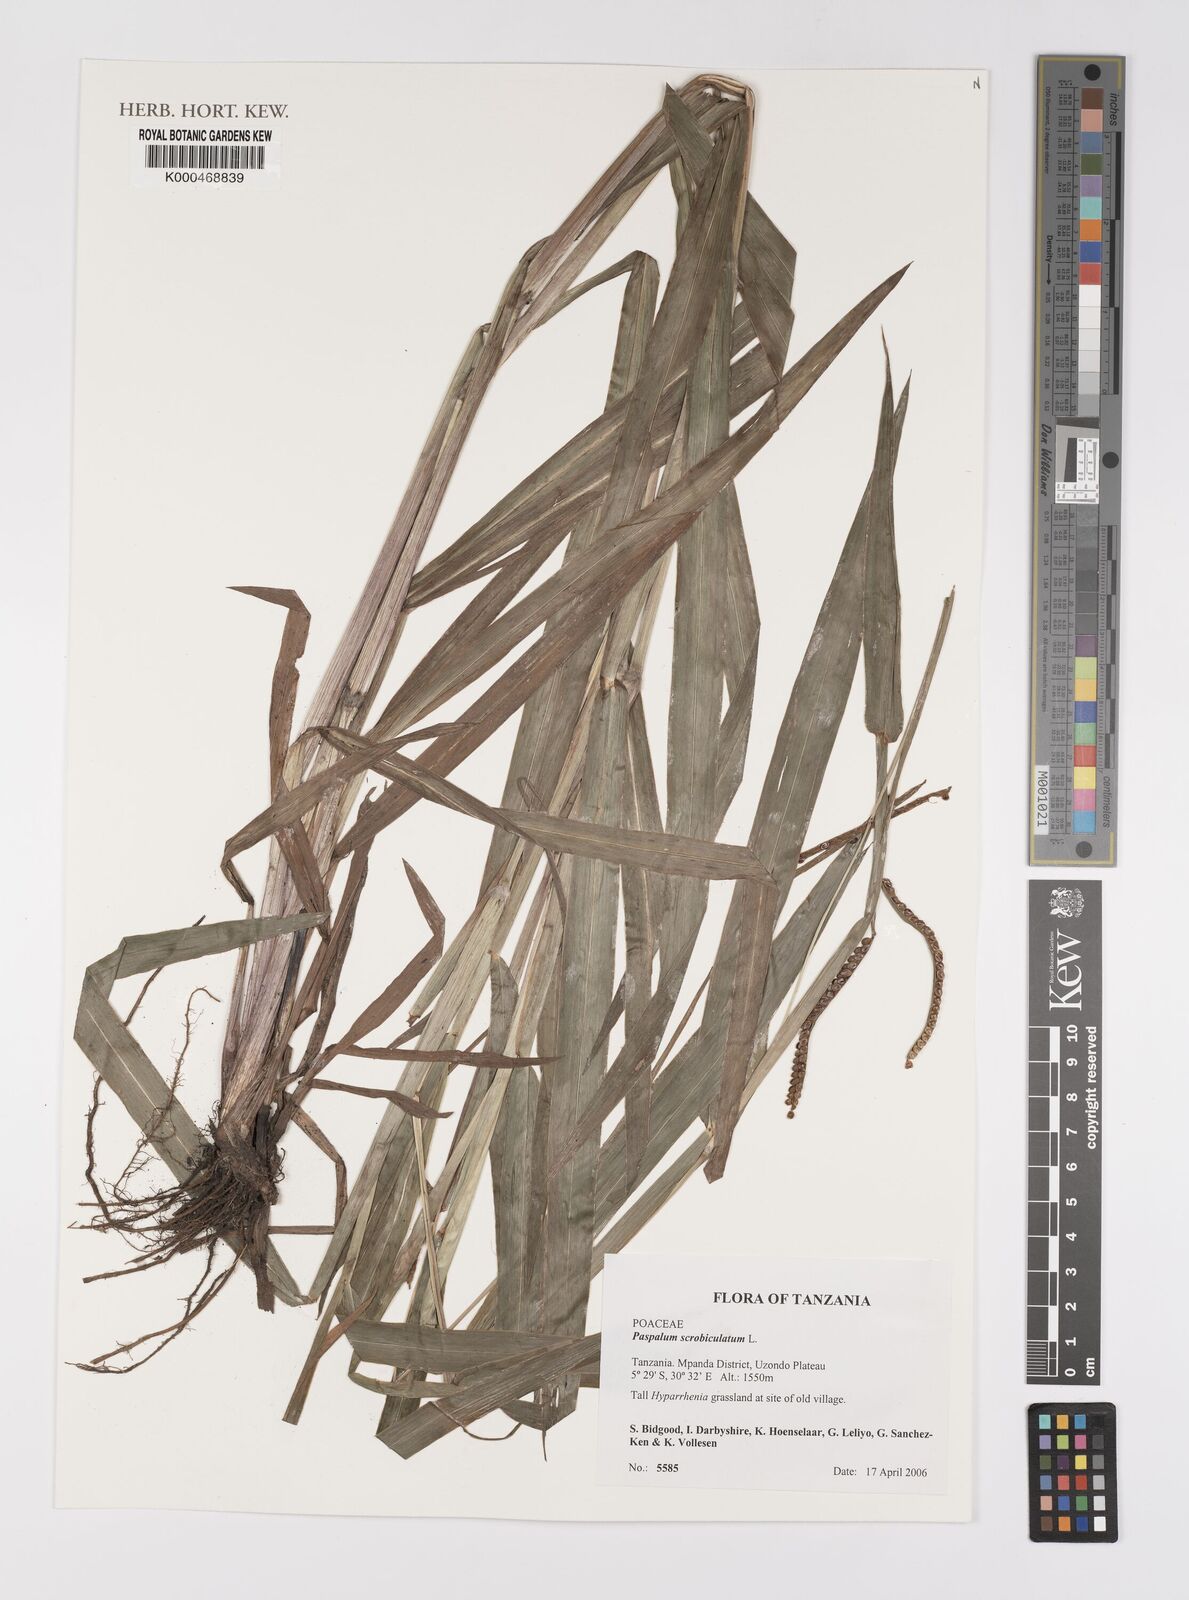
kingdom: Plantae
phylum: Tracheophyta
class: Liliopsida
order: Poales
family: Poaceae
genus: Paspalum
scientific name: Paspalum scrobiculatum
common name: Kodo millet
